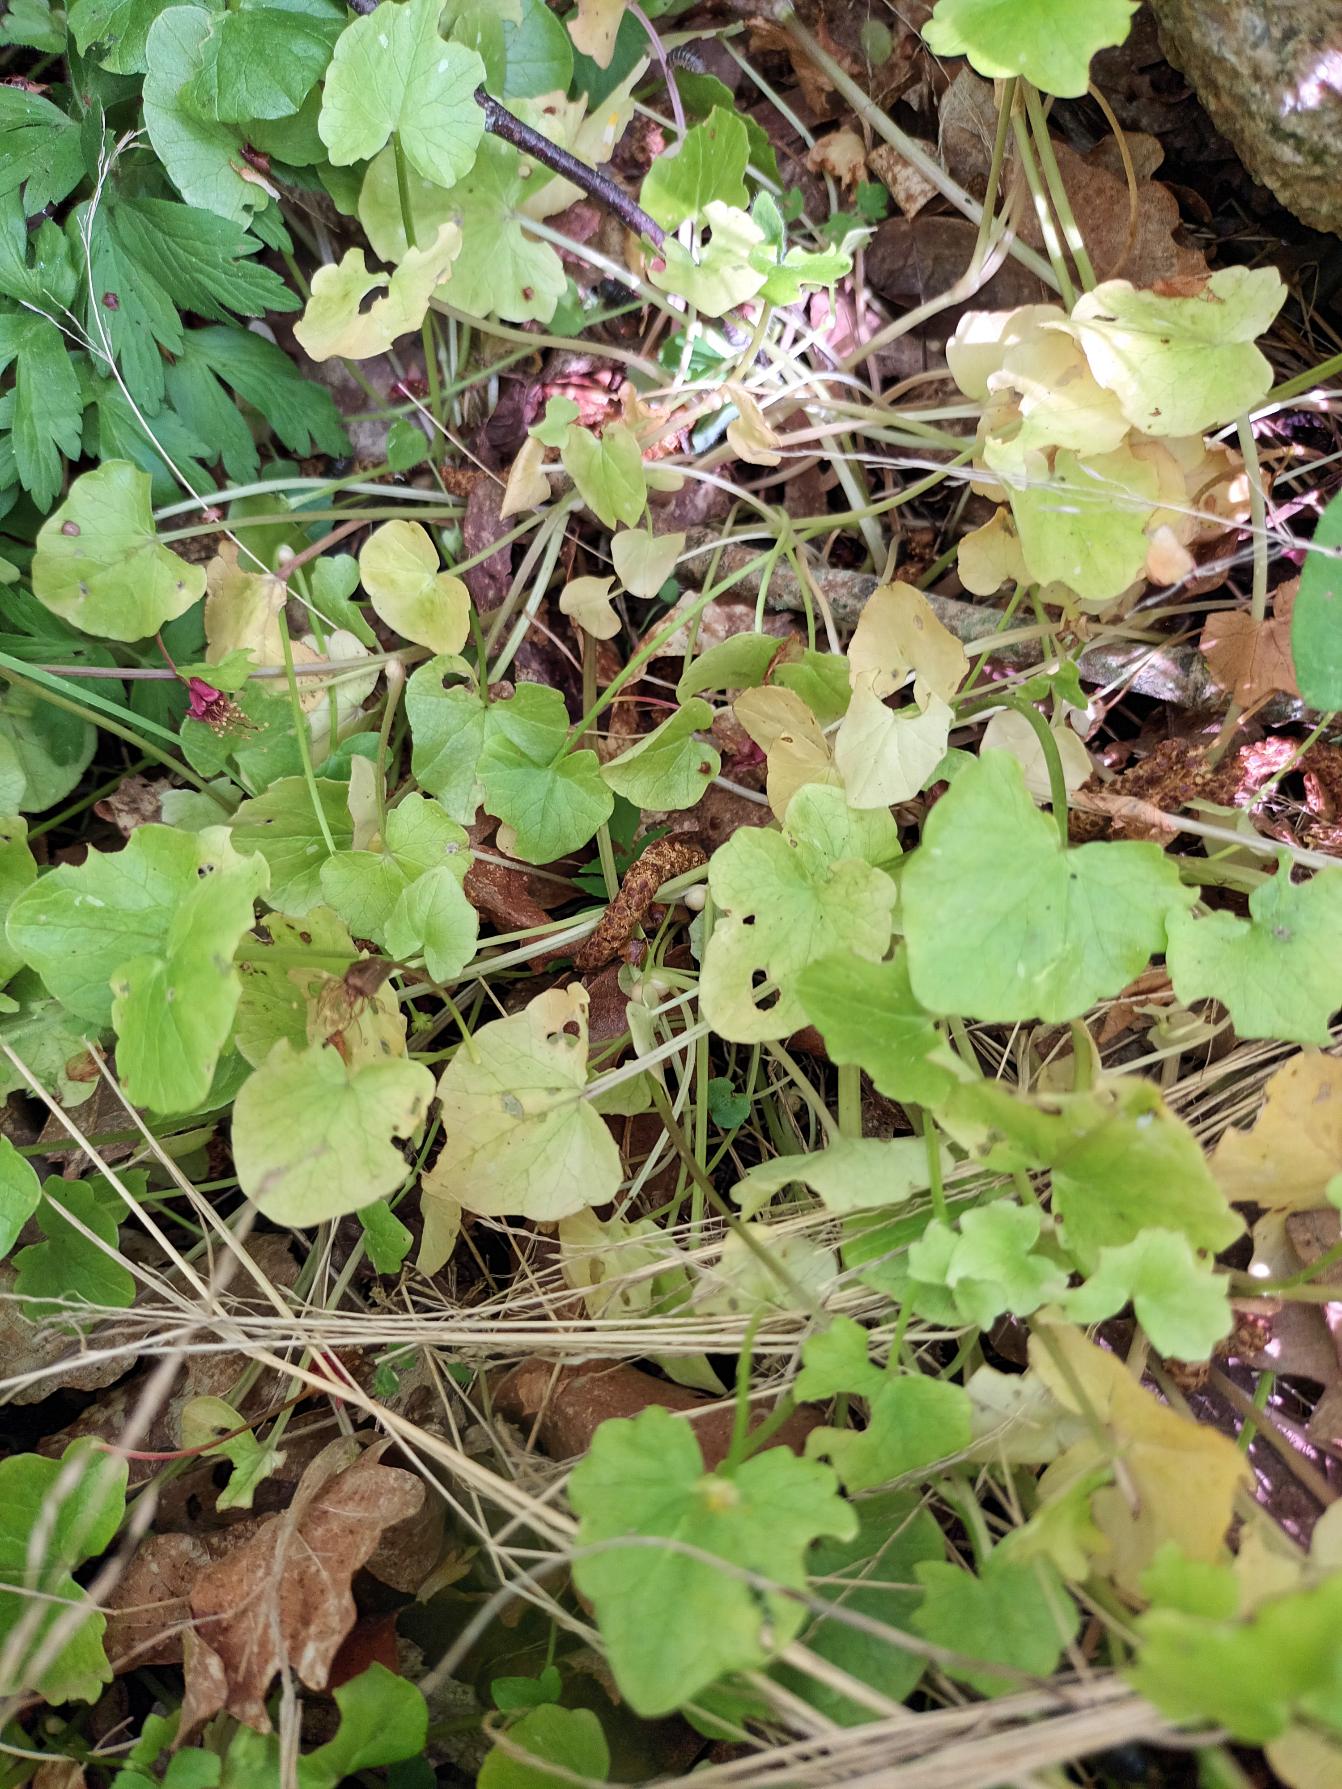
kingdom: Plantae
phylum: Tracheophyta
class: Magnoliopsida
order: Ranunculales
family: Ranunculaceae
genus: Ficaria
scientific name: Ficaria verna
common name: Vorterod
